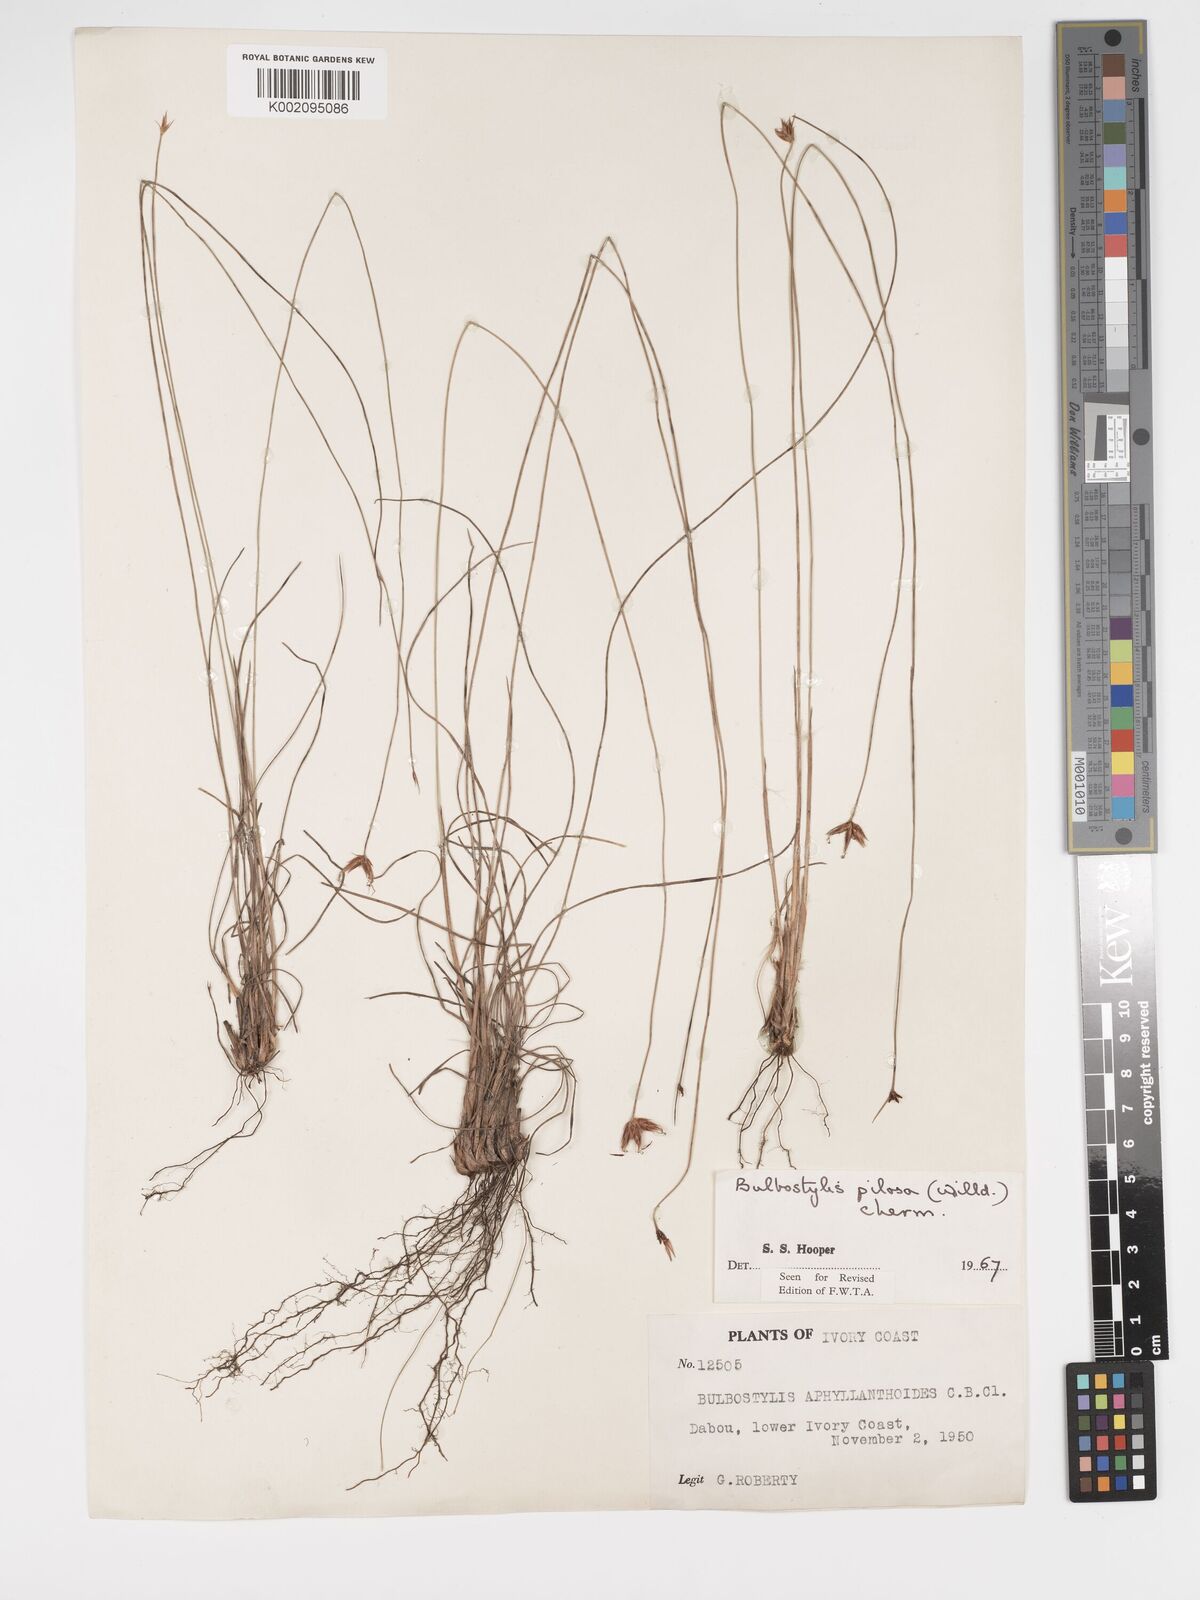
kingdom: Plantae
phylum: Tracheophyta
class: Liliopsida
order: Poales
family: Cyperaceae
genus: Bulbostylis
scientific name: Bulbostylis pilosa
